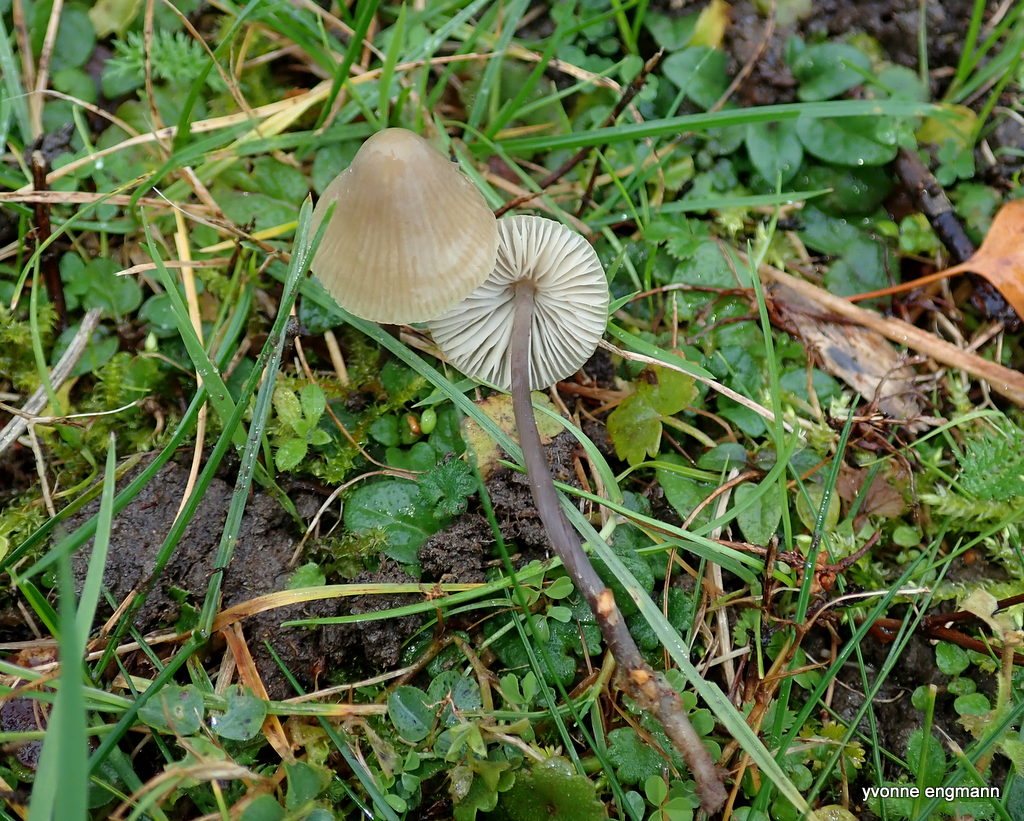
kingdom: Fungi
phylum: Basidiomycota
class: Agaricomycetes
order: Agaricales
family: Mycenaceae
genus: Mycena
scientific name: Mycena galericulata
